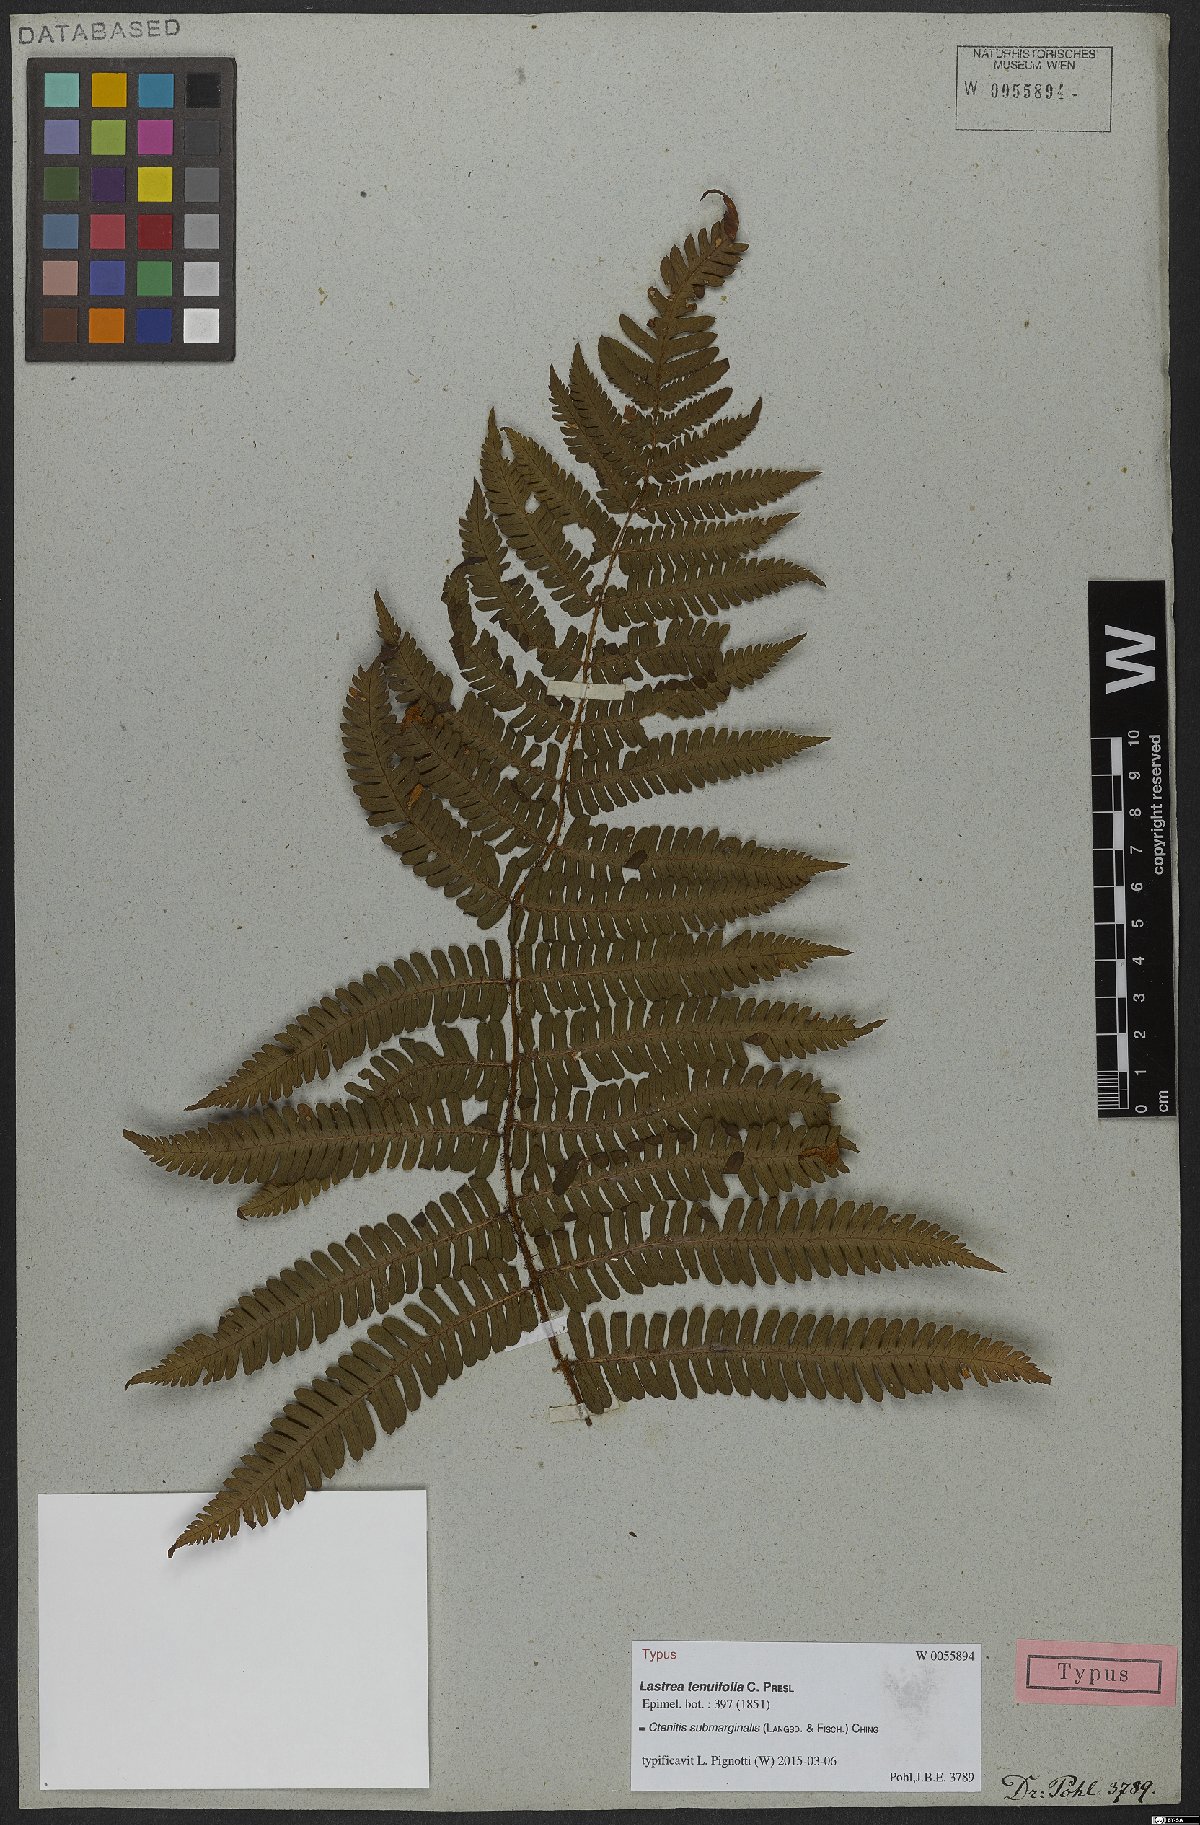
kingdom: Plantae
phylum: Tracheophyta
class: Polypodiopsida
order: Polypodiales
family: Dryopteridaceae
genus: Ctenitis
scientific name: Ctenitis submarginalis
